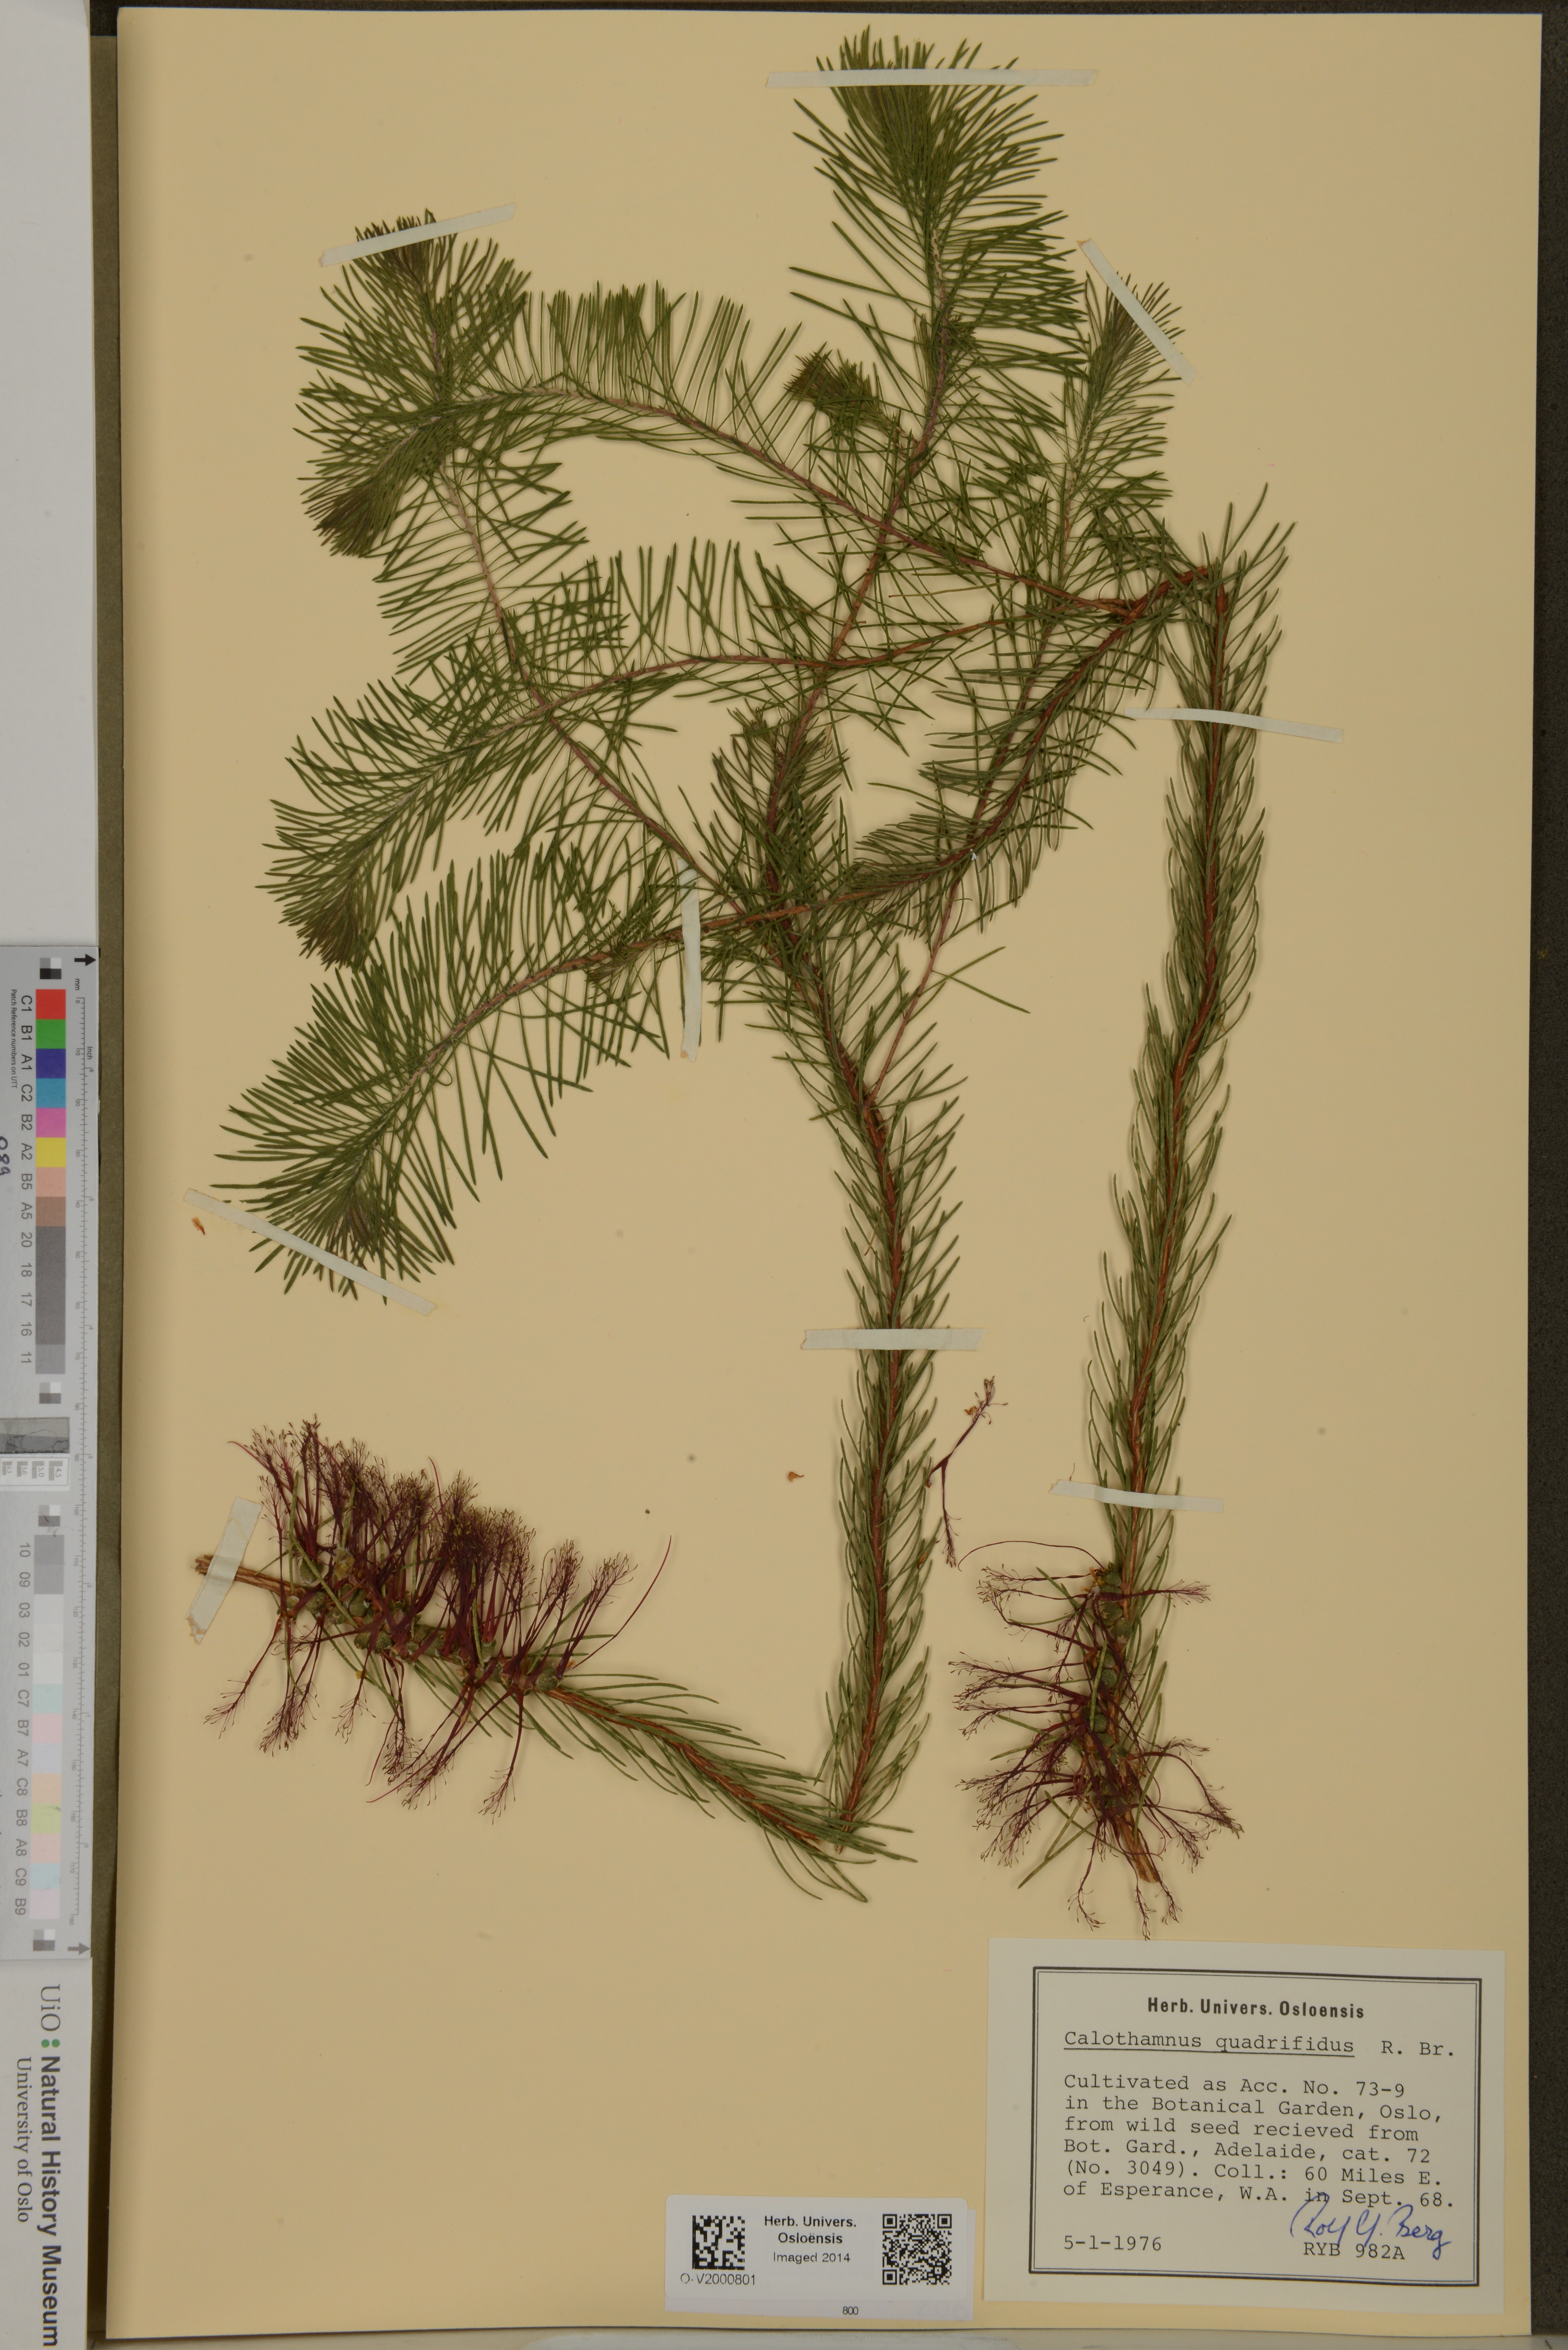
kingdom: Plantae
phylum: Tracheophyta
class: Magnoliopsida
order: Myrtales
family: Myrtaceae
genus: Melaleuca
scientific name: Melaleuca quadrifida
